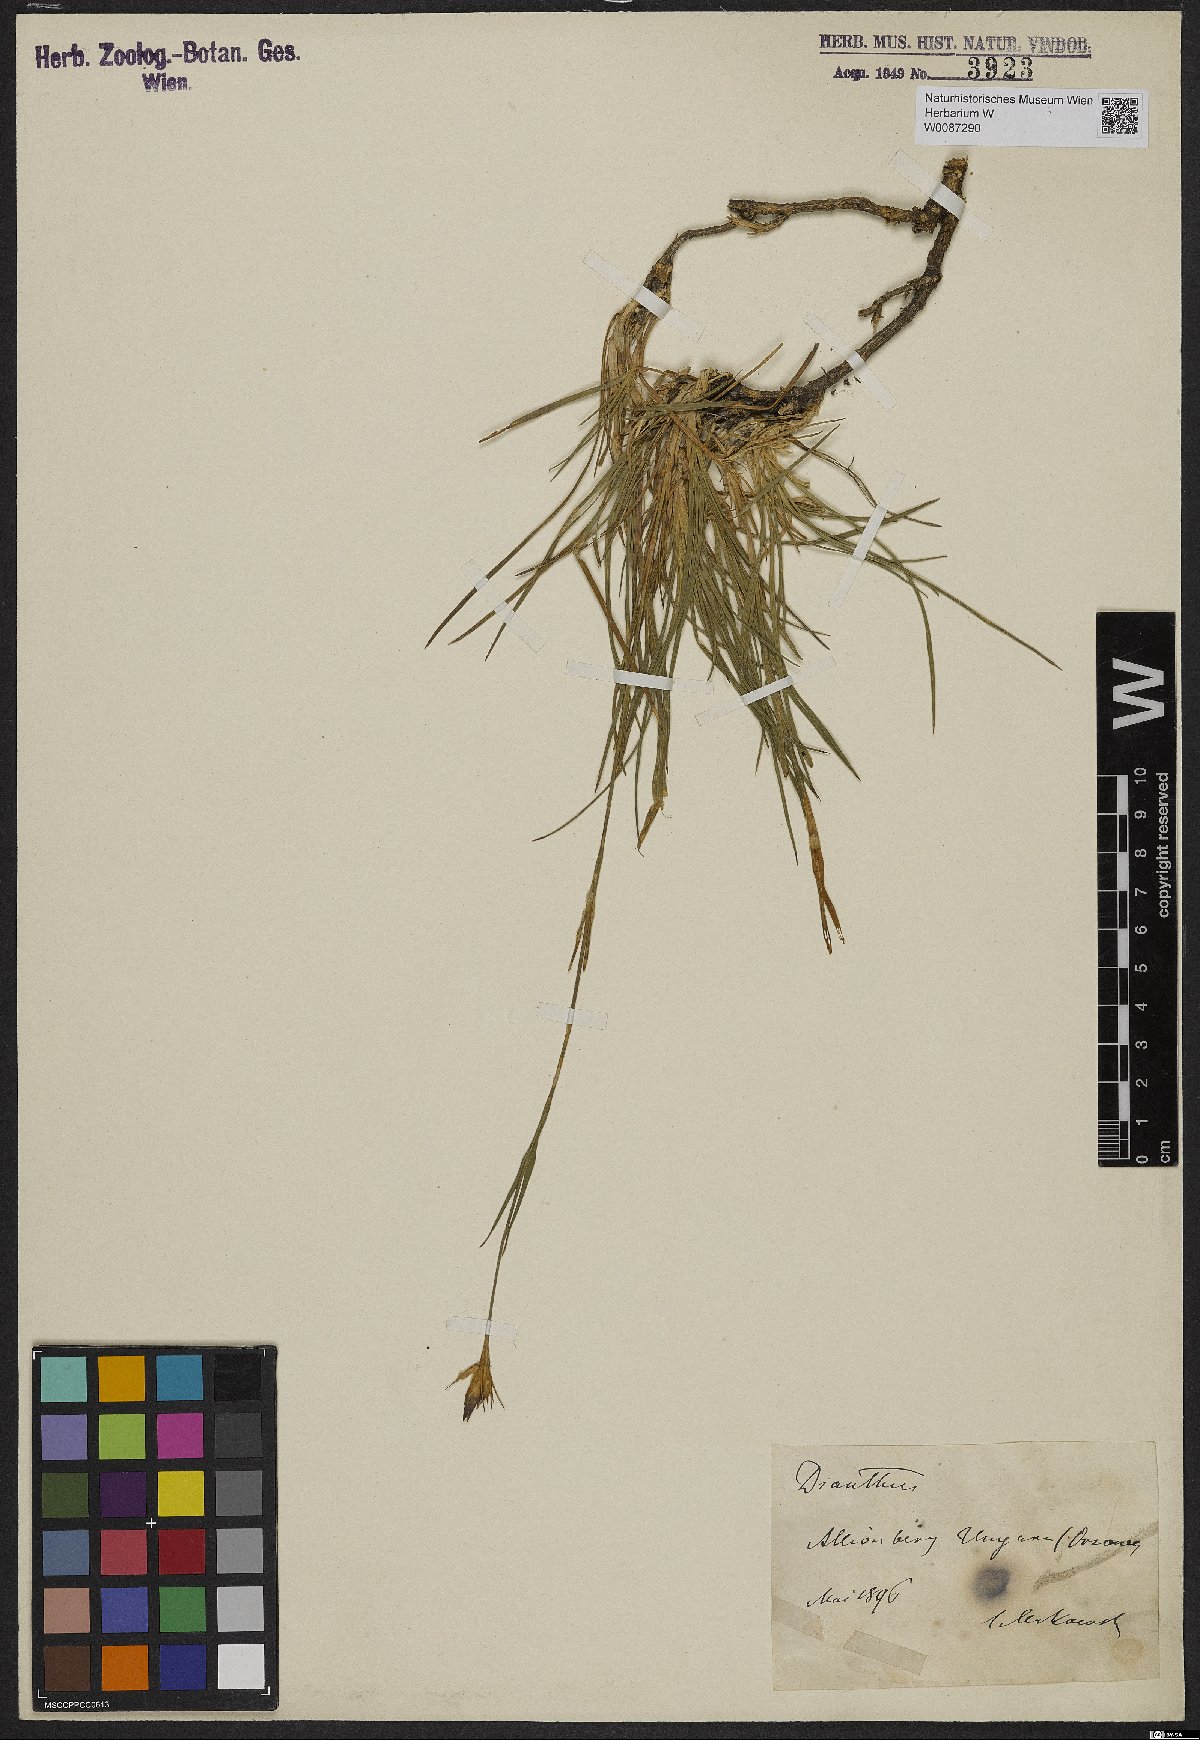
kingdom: Plantae
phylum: Tracheophyta
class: Magnoliopsida
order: Caryophyllales
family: Caryophyllaceae
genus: Dianthus
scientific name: Dianthus
